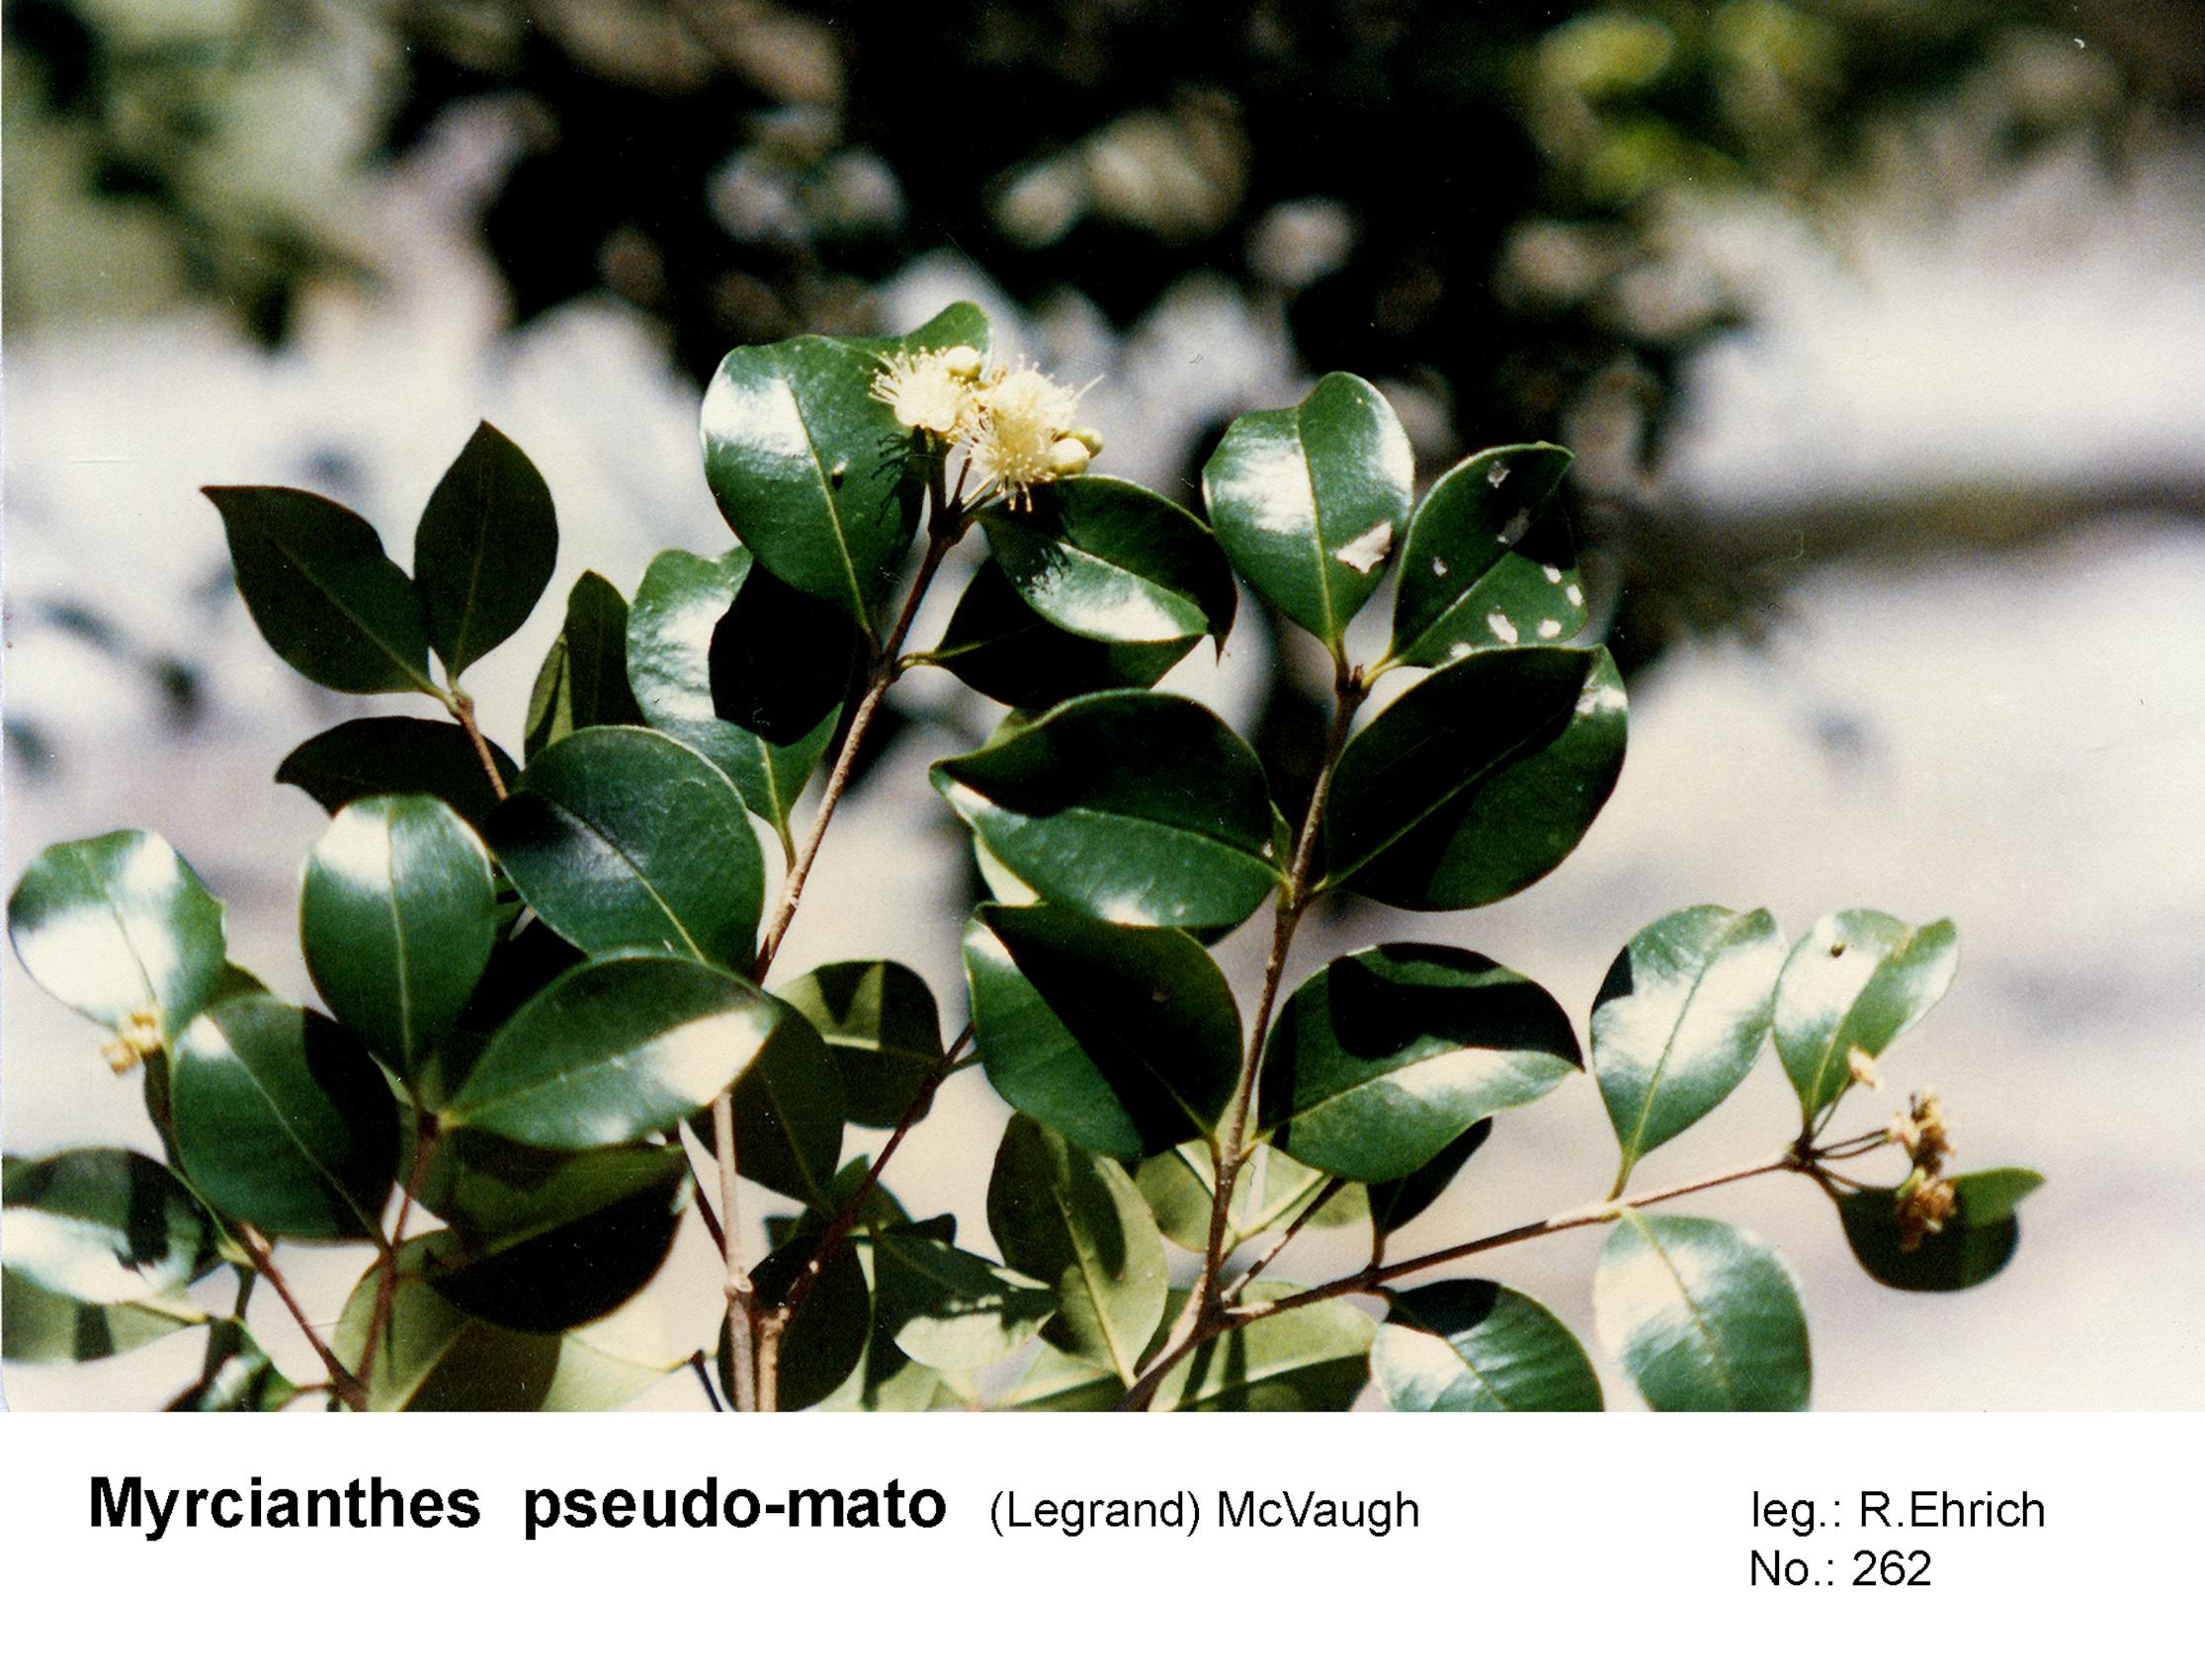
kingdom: Plantae
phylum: Tracheophyta
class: Magnoliopsida
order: Myrtales
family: Myrtaceae
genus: Myrcianthes
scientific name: Myrcianthes pseudomato
